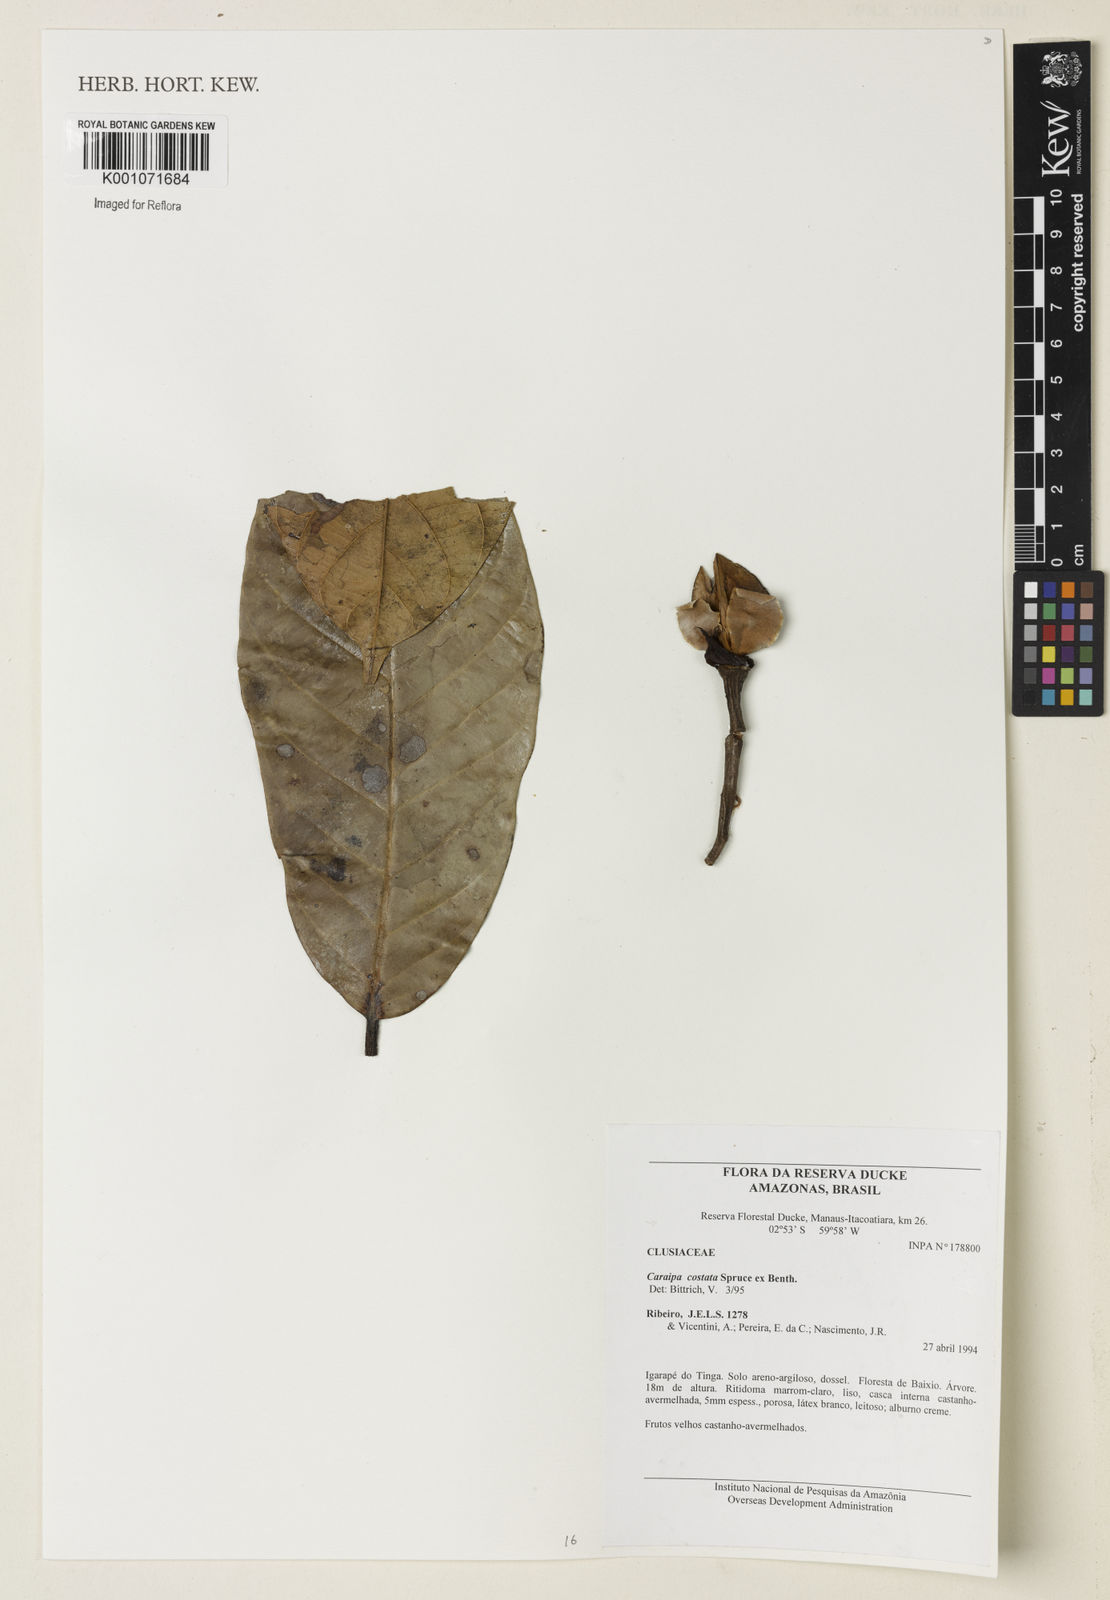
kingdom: Plantae
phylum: Tracheophyta
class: Magnoliopsida
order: Malpighiales
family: Calophyllaceae
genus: Caraipa
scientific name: Caraipa costata
